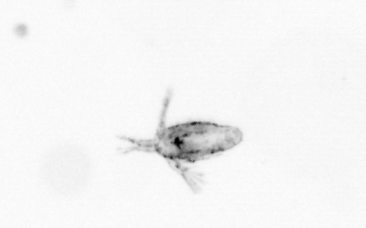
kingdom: Animalia
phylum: Arthropoda
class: Copepoda
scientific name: Copepoda
